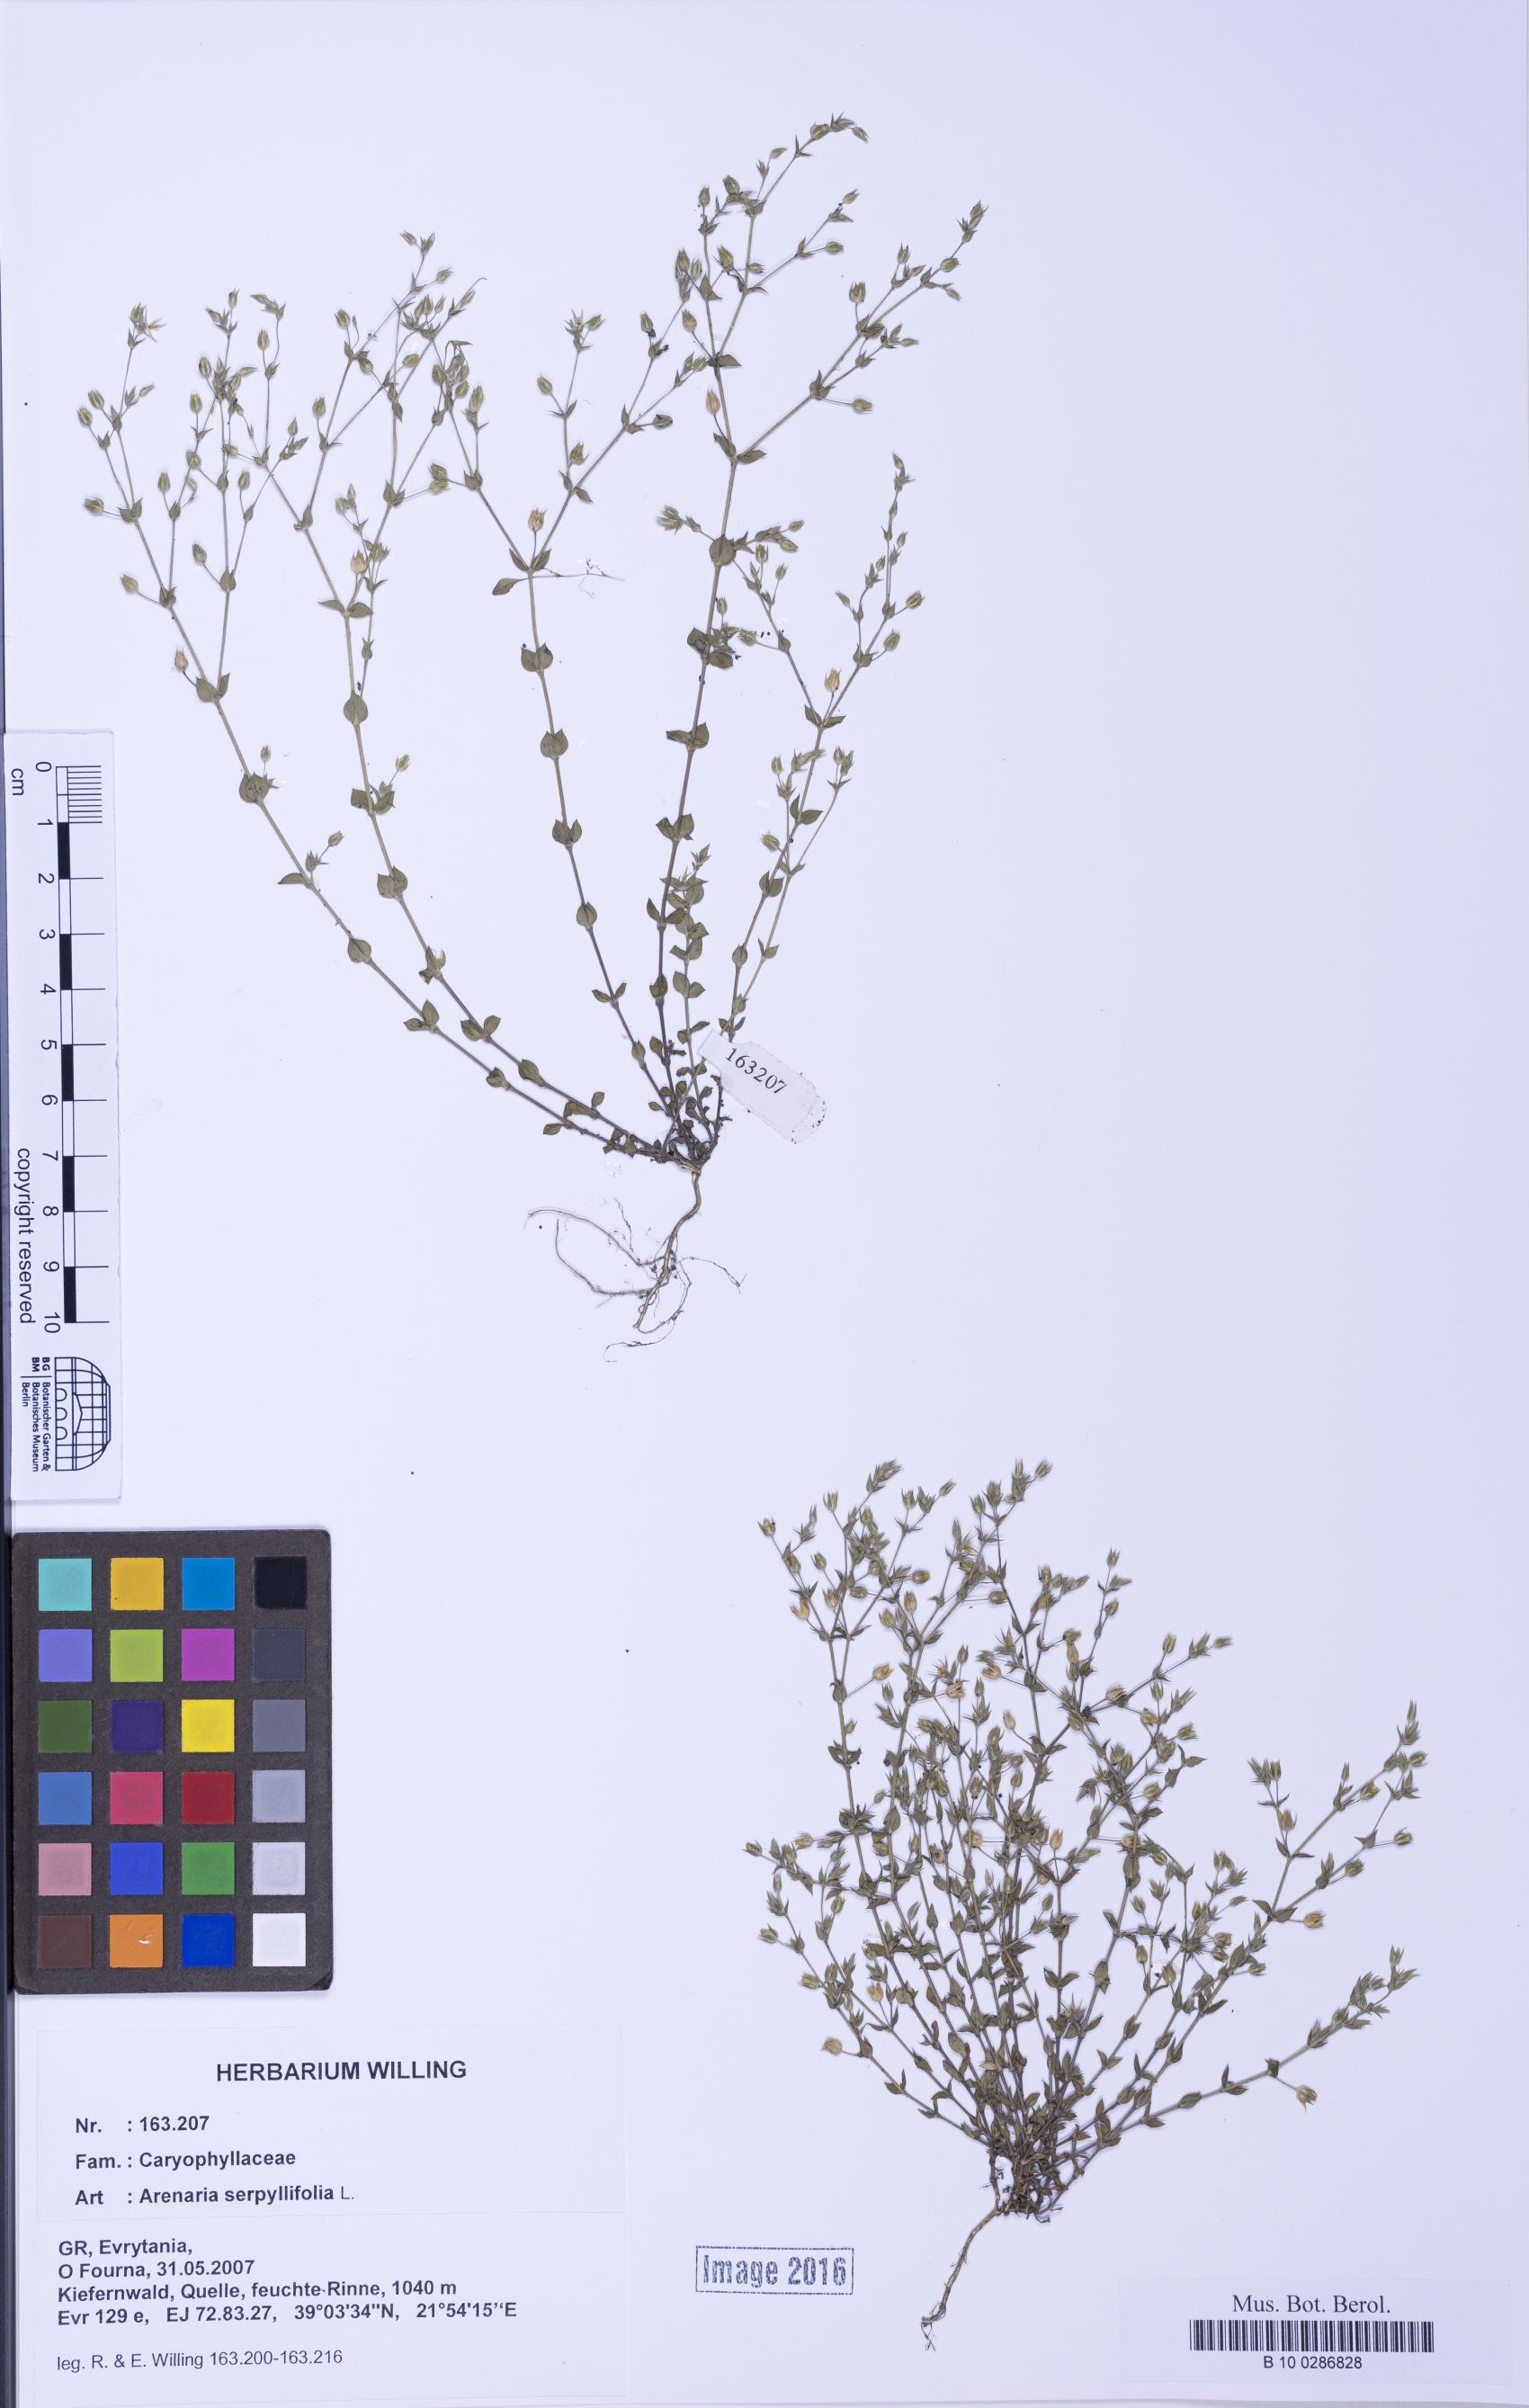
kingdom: Plantae
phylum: Tracheophyta
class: Magnoliopsida
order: Caryophyllales
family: Caryophyllaceae
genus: Arenaria
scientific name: Arenaria serpyllifolia
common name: Thyme-leaved sandwort
